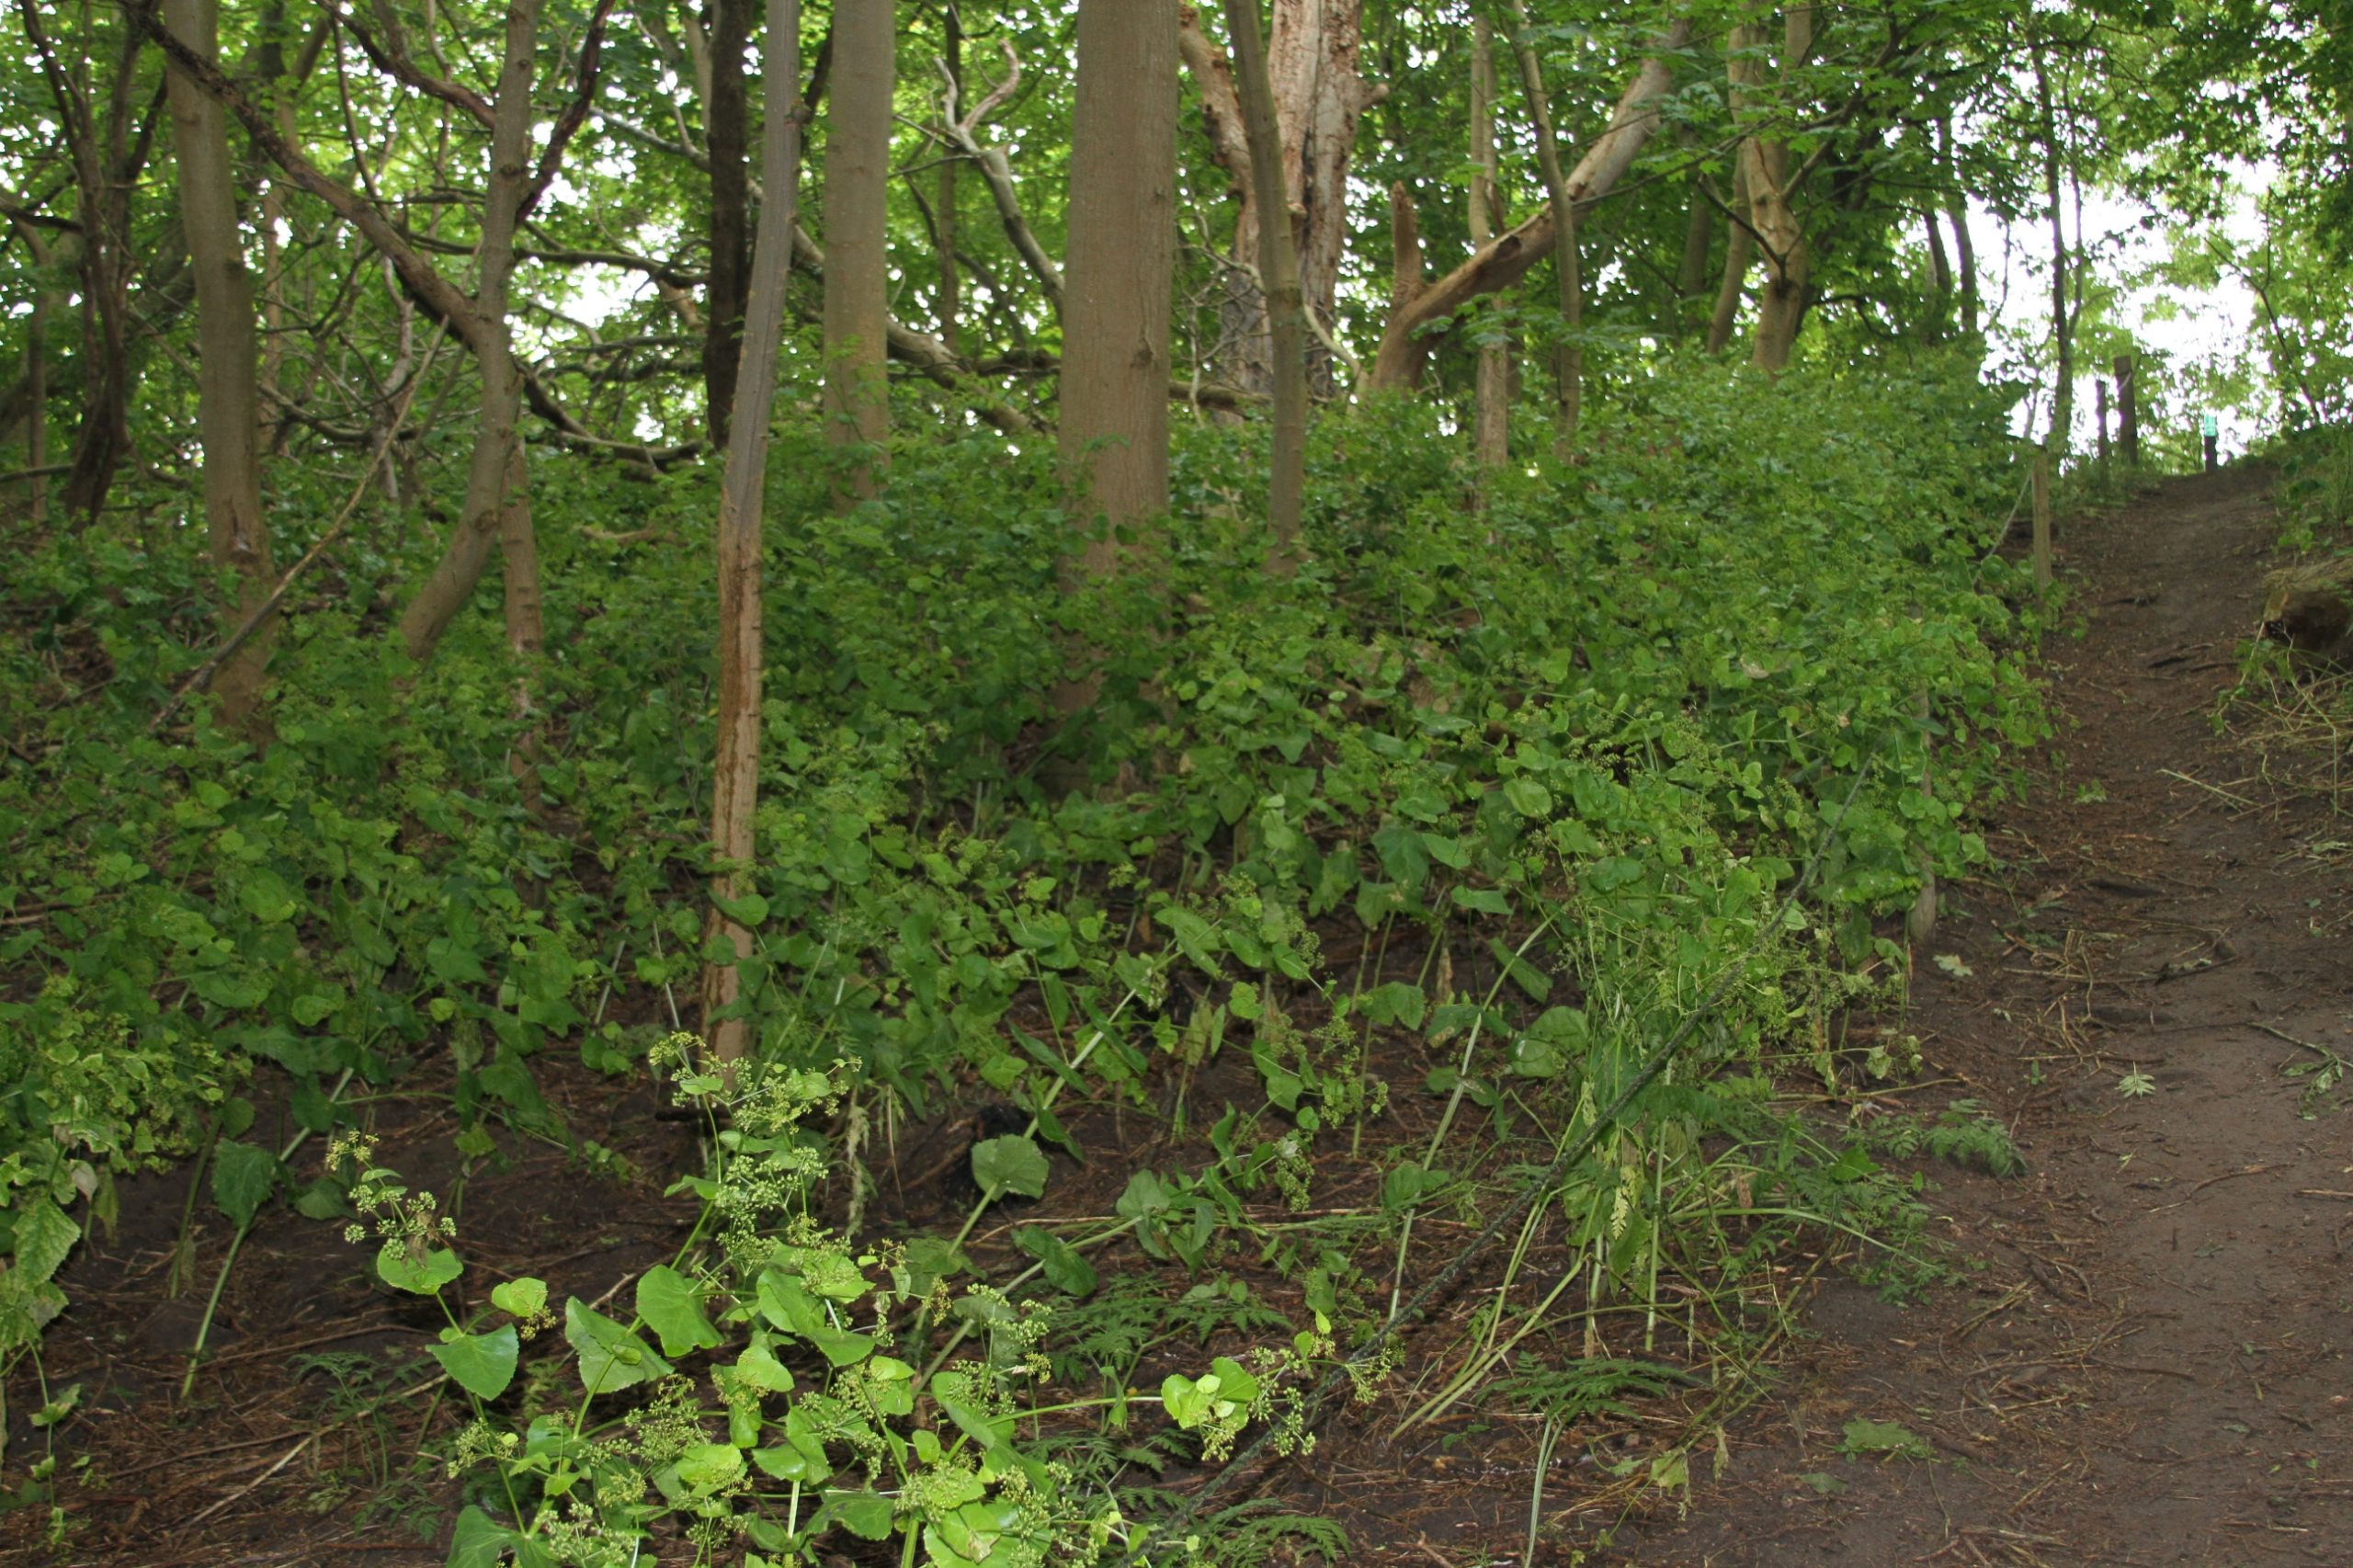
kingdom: Plantae
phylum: Tracheophyta
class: Magnoliopsida
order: Apiales
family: Apiaceae
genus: Smyrnium
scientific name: Smyrnium perfoliatum
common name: Lundgylden
